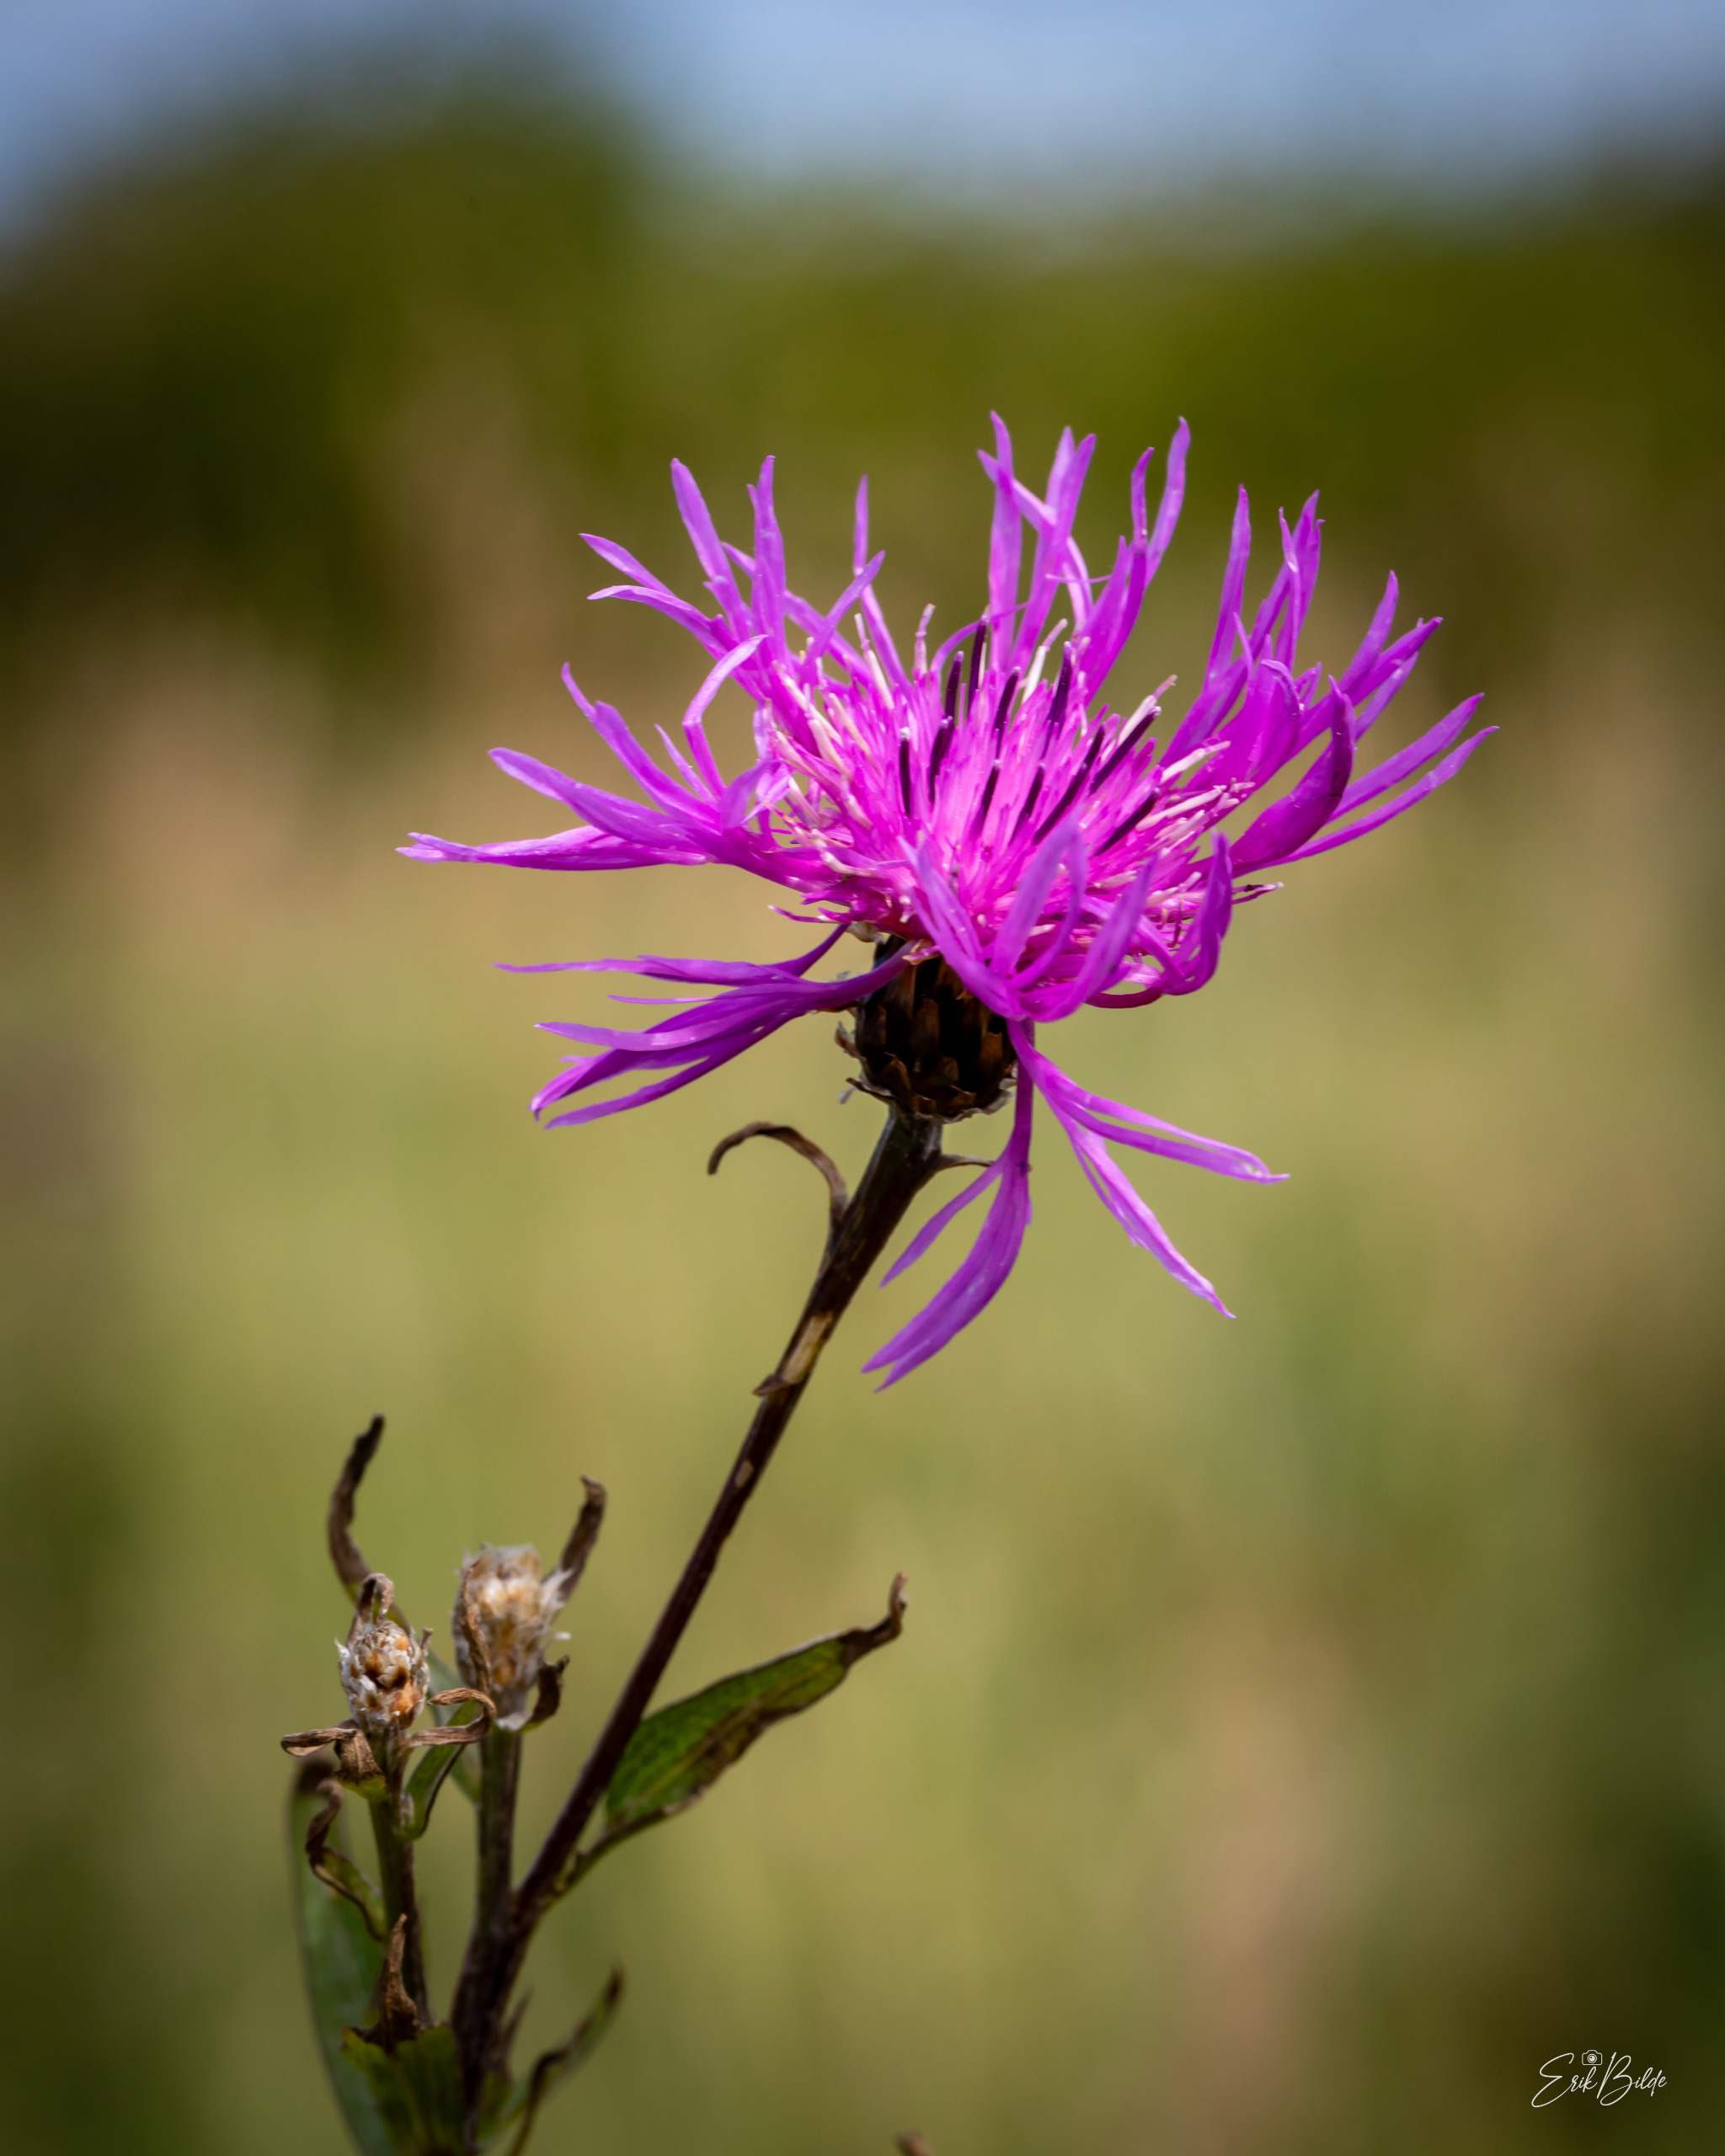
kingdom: Plantae
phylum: Tracheophyta
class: Magnoliopsida
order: Asterales
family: Asteraceae
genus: Centaurea
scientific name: Centaurea jacea
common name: Almindelig knopurt
